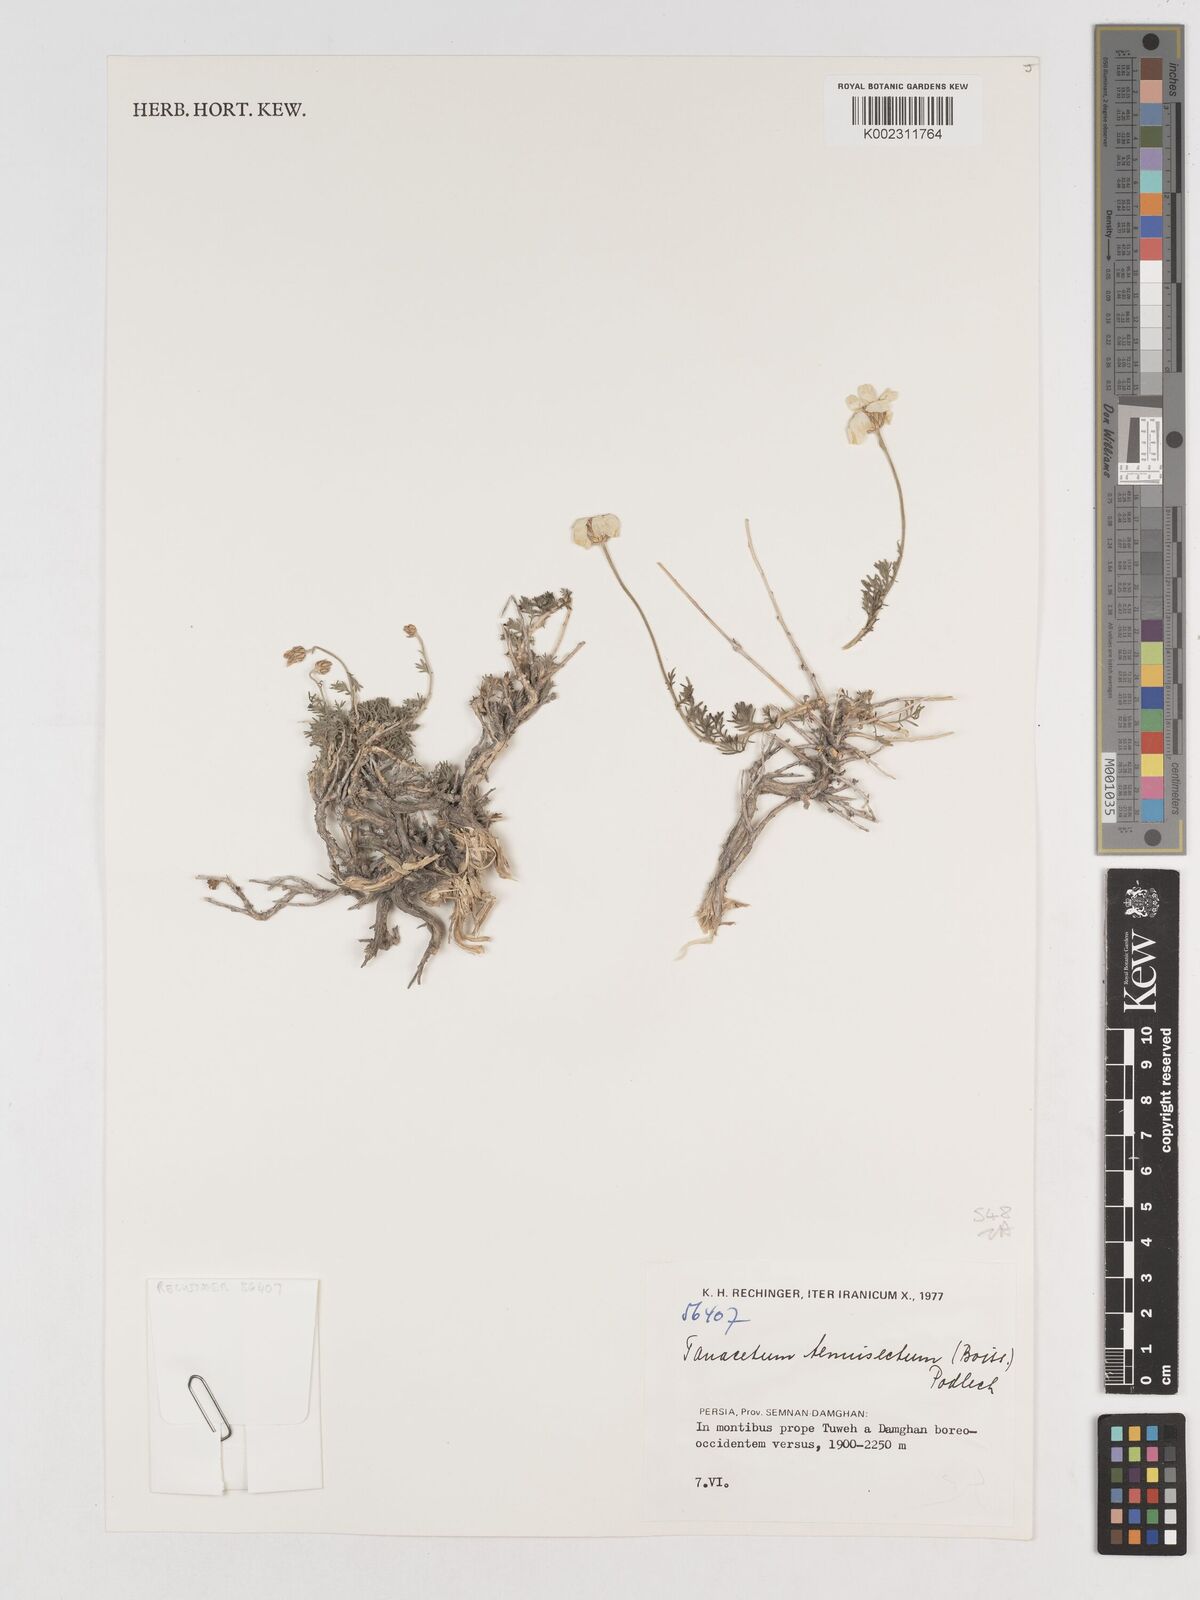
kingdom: Plantae
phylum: Tracheophyta
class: Magnoliopsida
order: Asterales
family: Asteraceae
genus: Tanacetum
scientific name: Tanacetum
